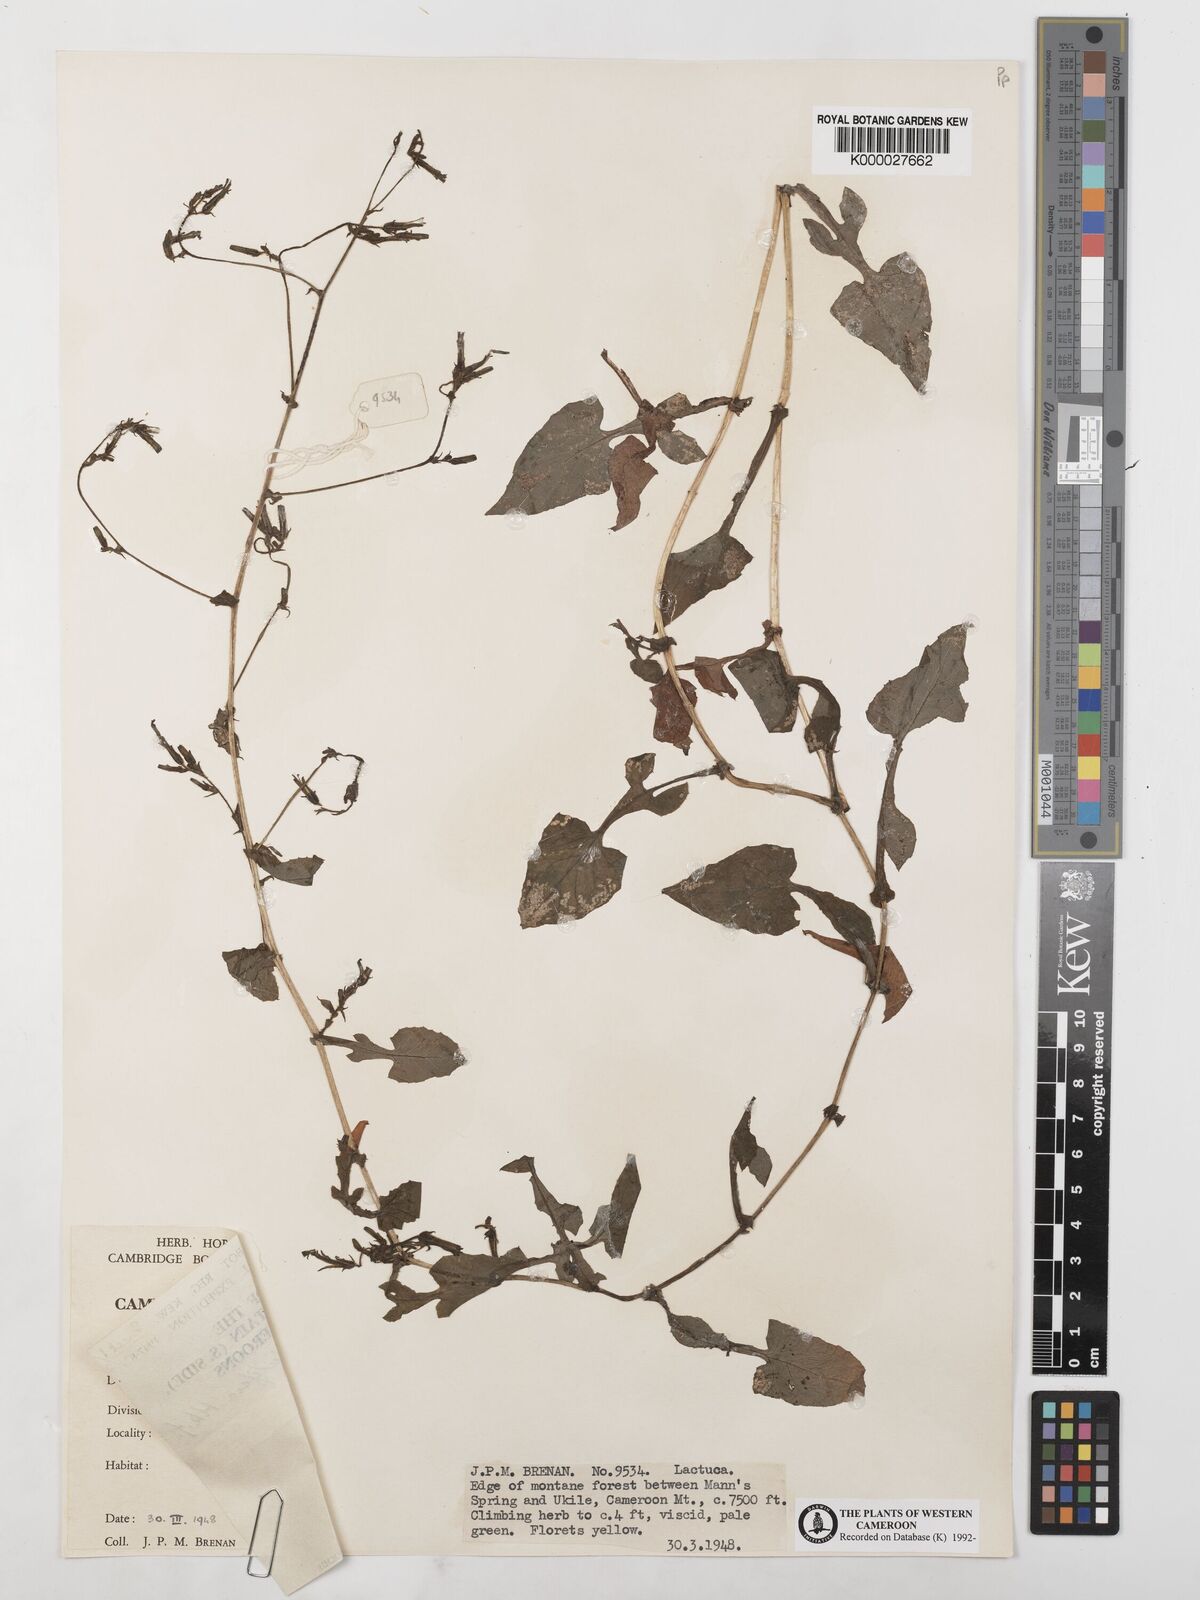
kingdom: Plantae
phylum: Tracheophyta
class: Magnoliopsida
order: Asterales
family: Asteraceae
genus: Lactuca
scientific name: Lactuca glandulifera
